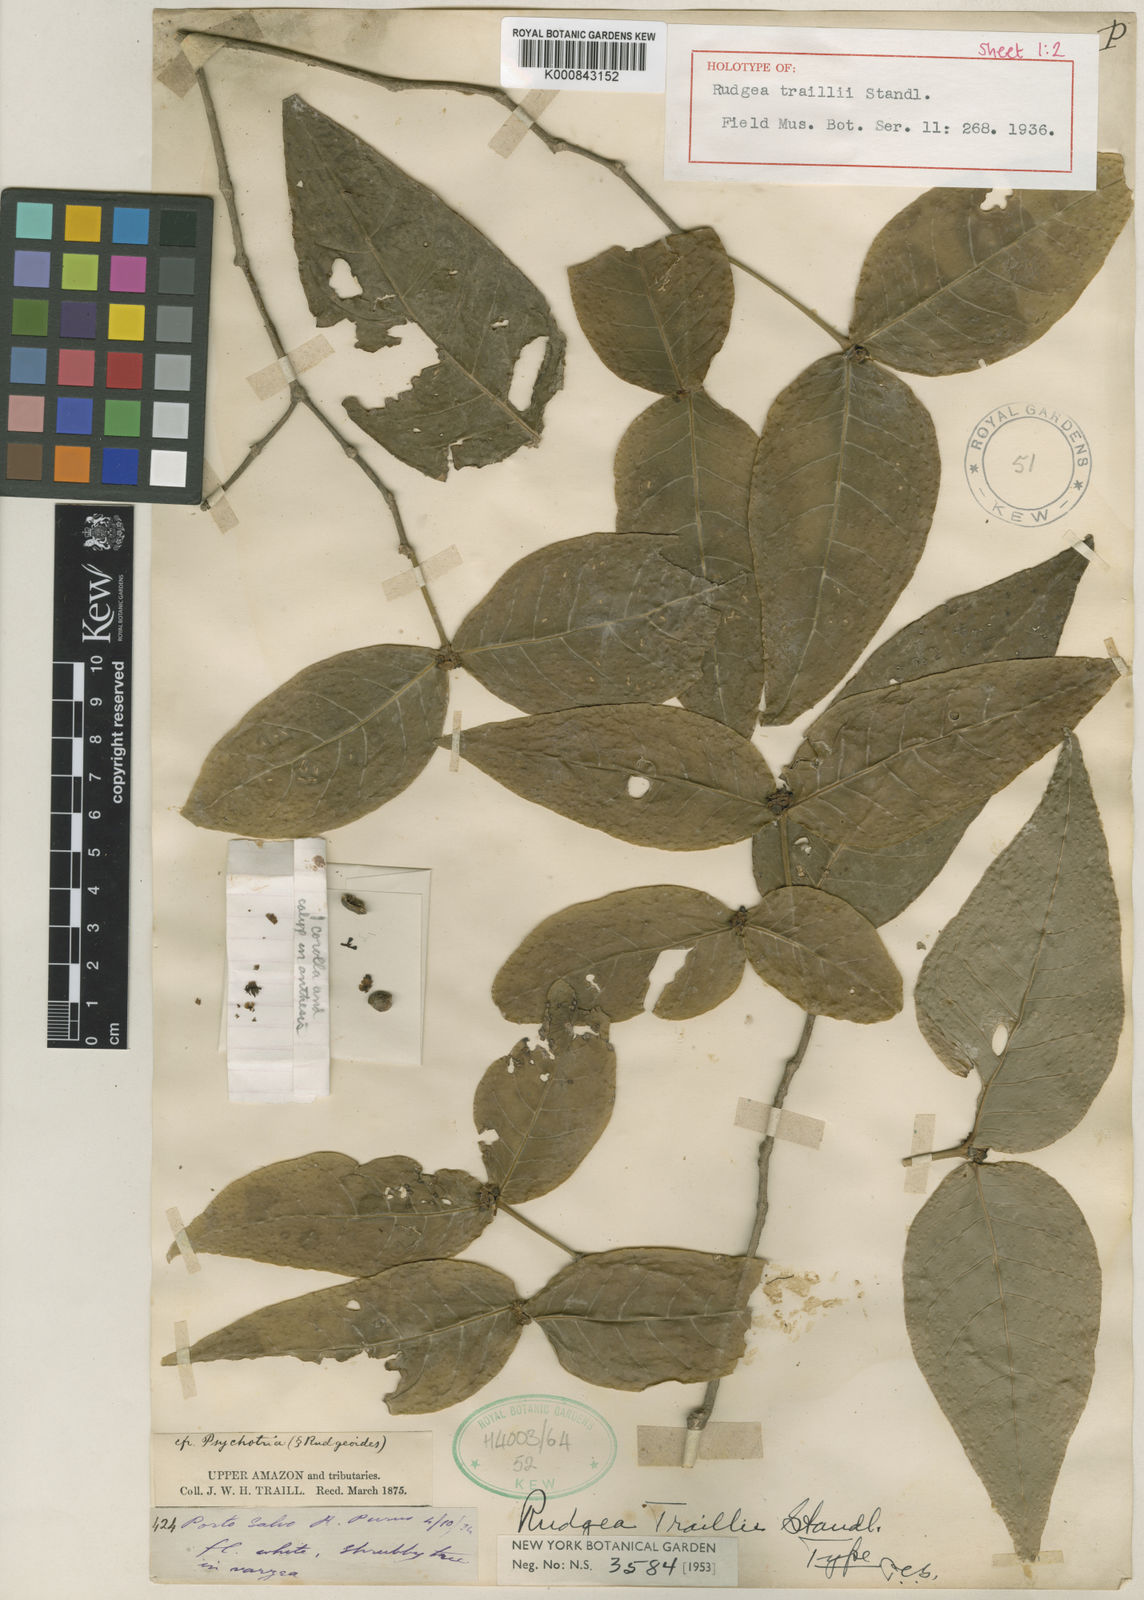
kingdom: Plantae
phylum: Tracheophyta
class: Magnoliopsida
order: Gentianales
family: Rubiaceae
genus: Rudgea
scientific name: Rudgea
